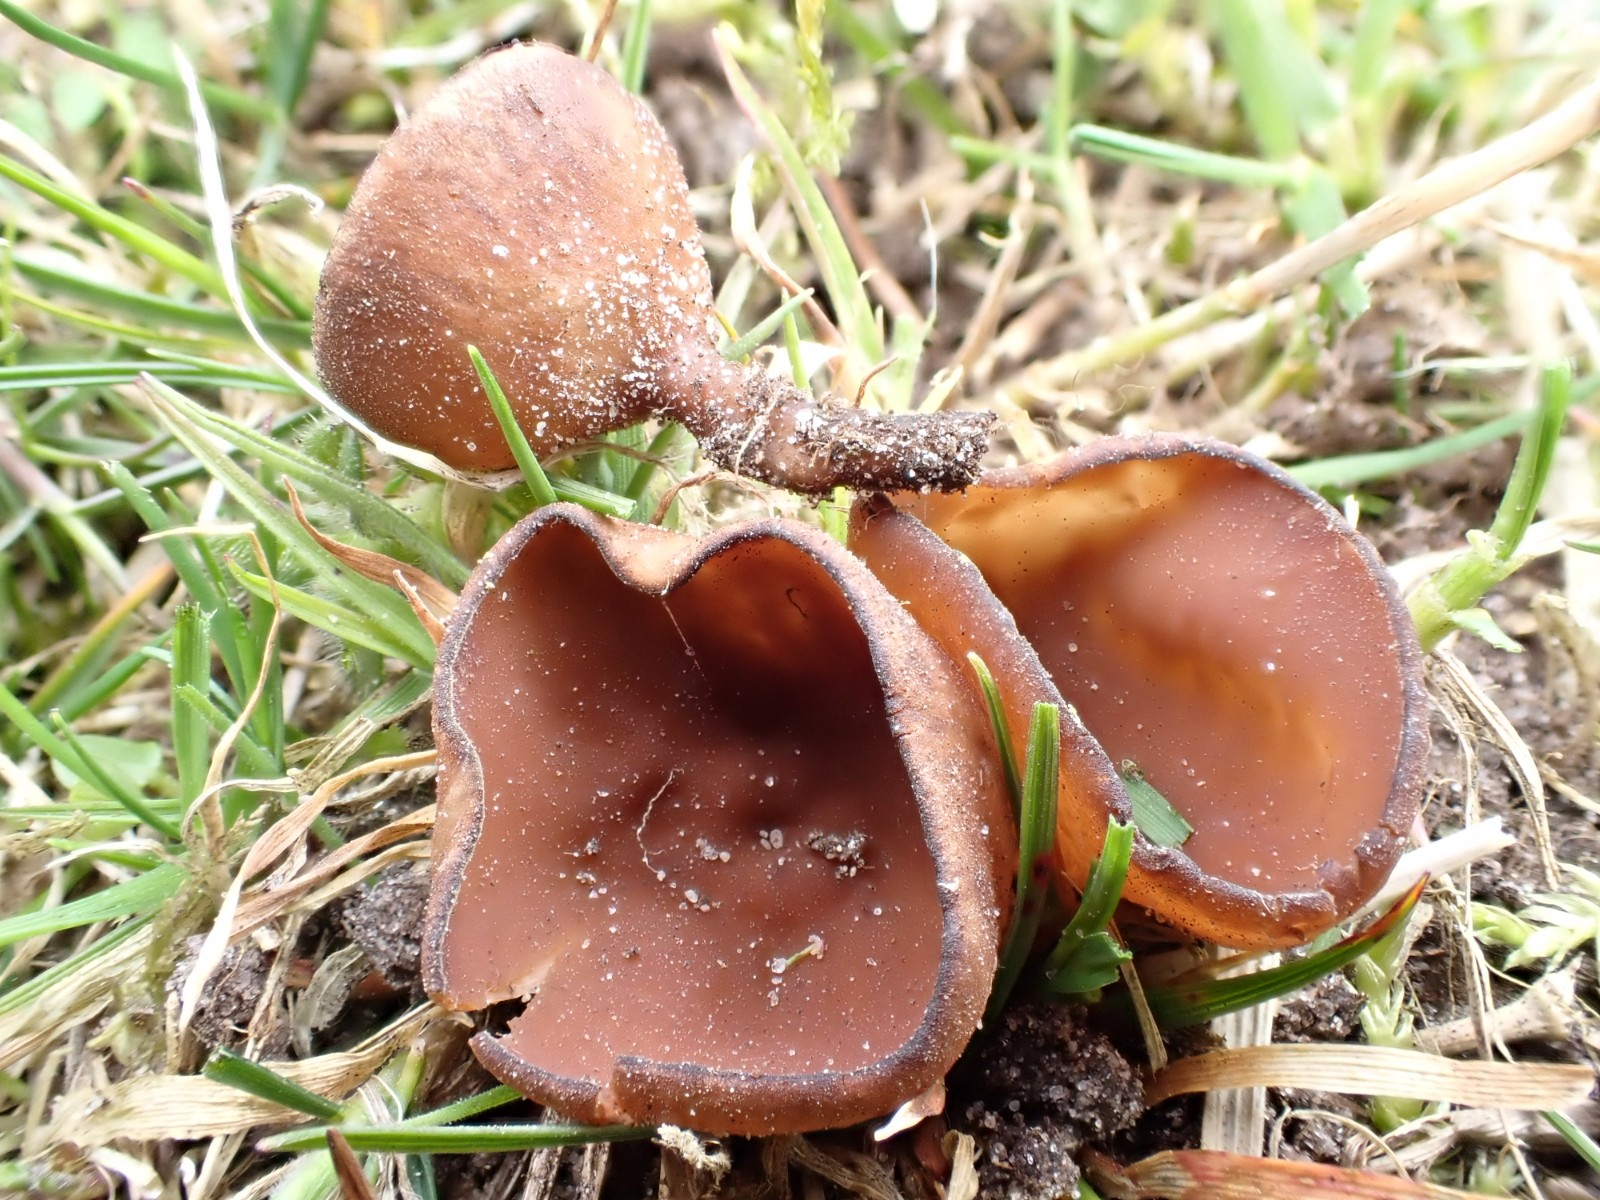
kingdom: Fungi
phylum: Ascomycota
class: Leotiomycetes
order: Helotiales
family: Sclerotiniaceae
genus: Dumontinia
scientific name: Dumontinia tuberosa
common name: anemone-knoldskive
